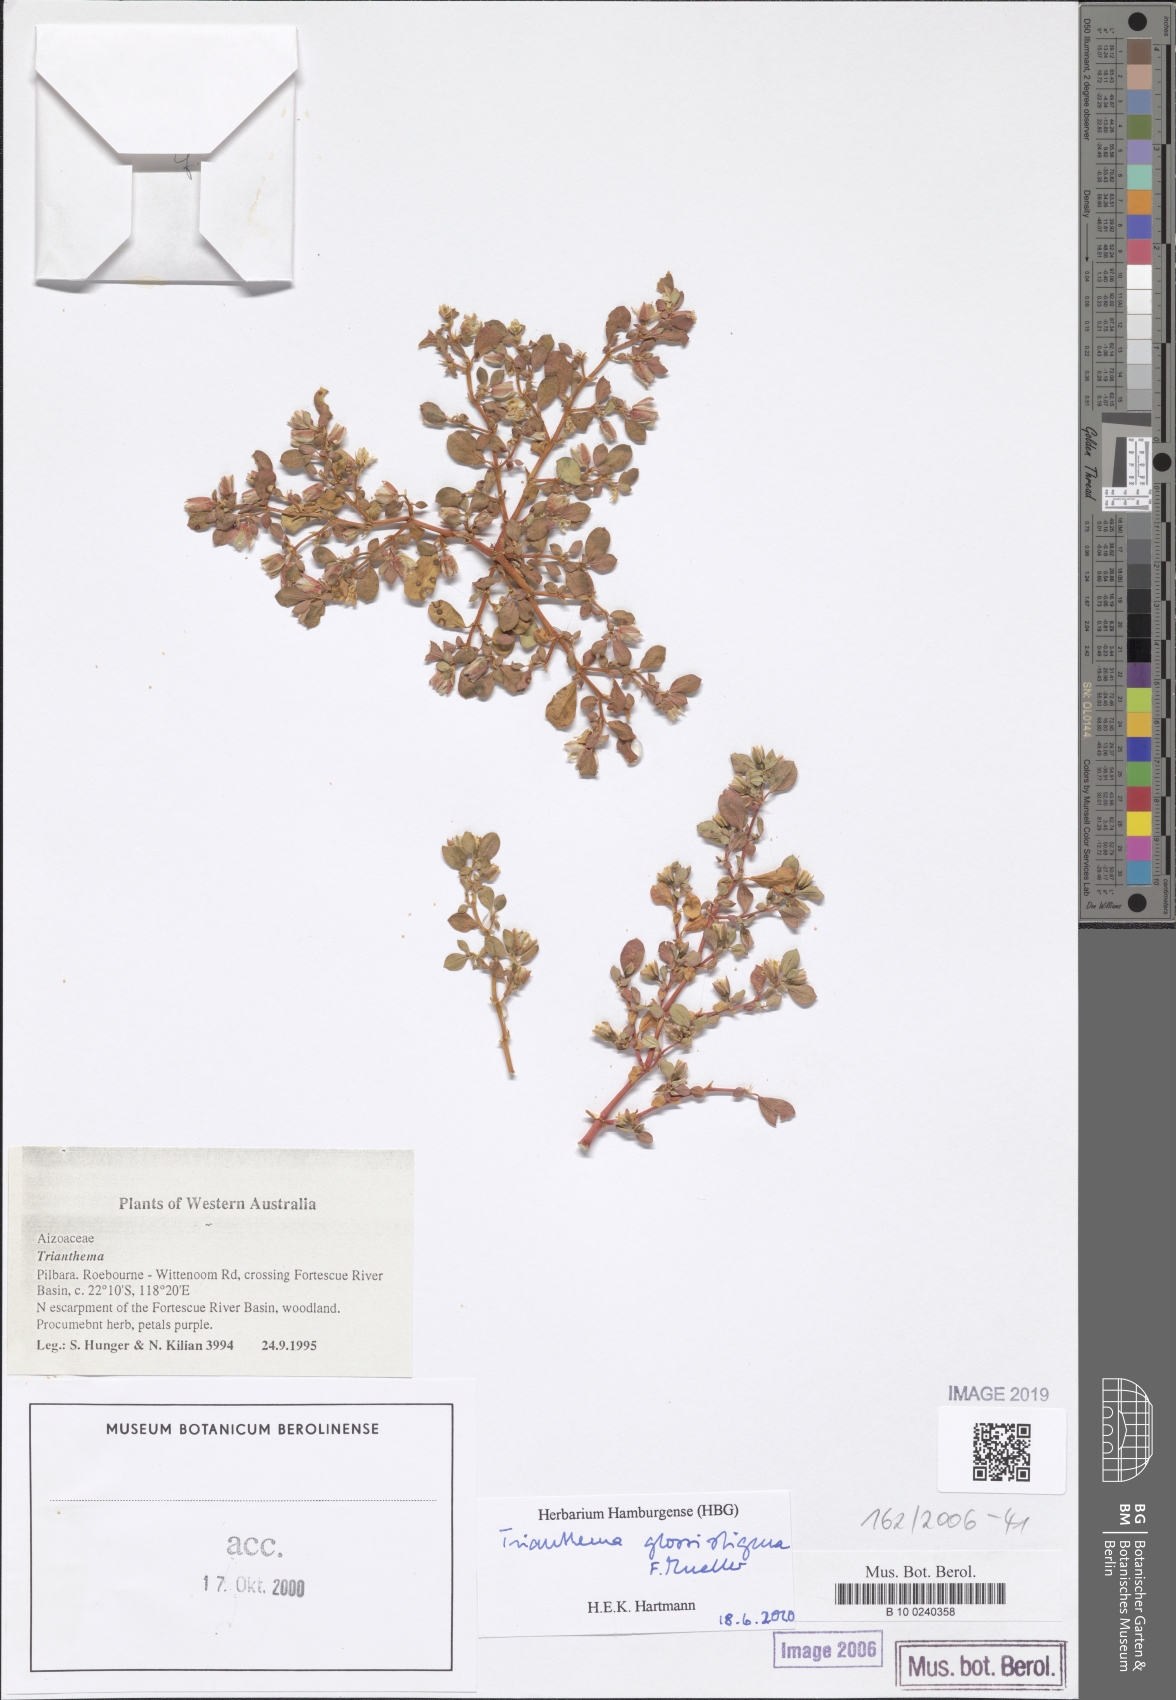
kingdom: Plantae
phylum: Tracheophyta
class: Magnoliopsida
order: Caryophyllales
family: Aizoaceae
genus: Trianthema
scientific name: Trianthema
